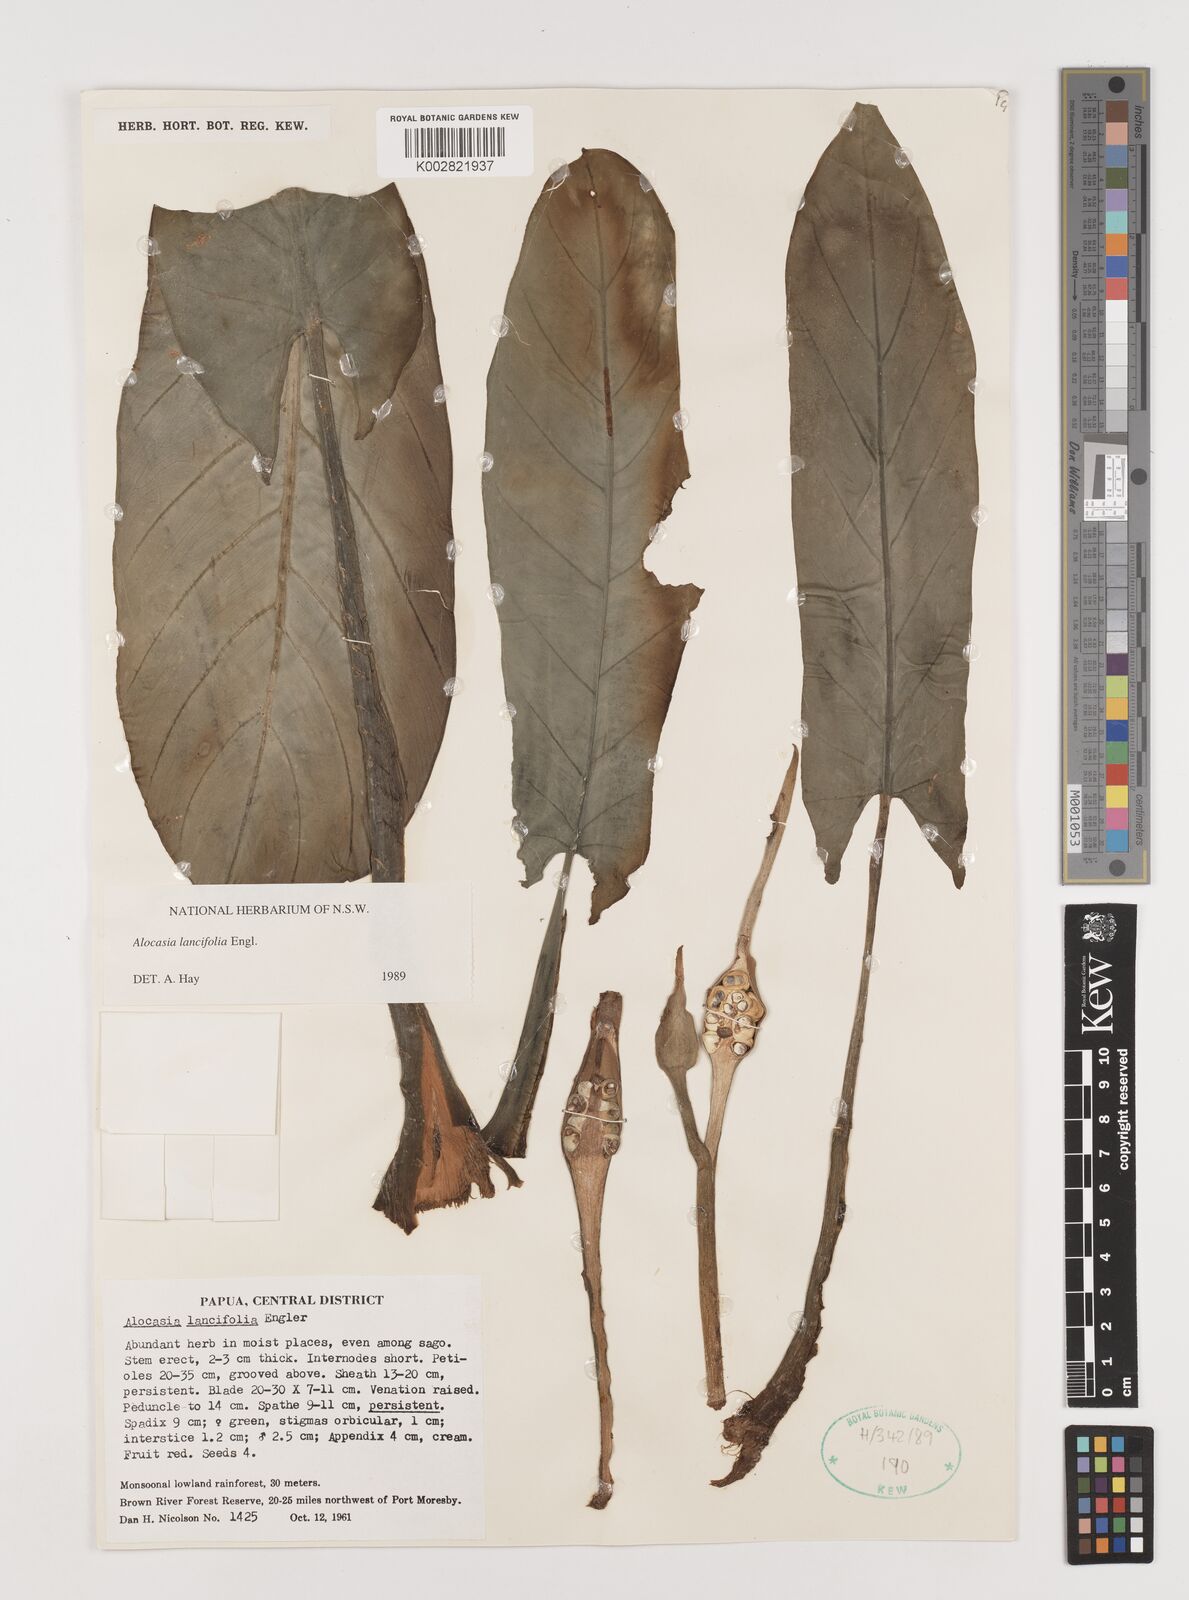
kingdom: Plantae
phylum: Tracheophyta
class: Liliopsida
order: Alismatales
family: Araceae
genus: Alocasia
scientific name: Alocasia lancifolia
